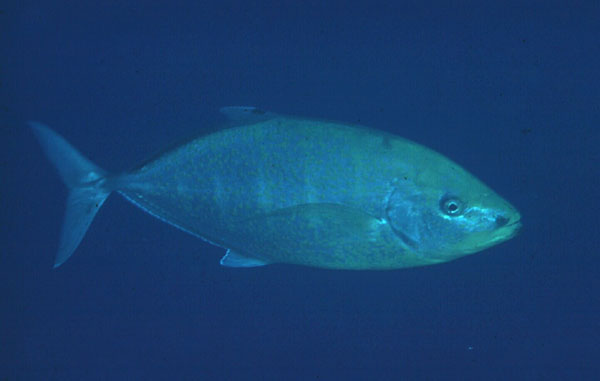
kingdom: Animalia
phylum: Chordata
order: Perciformes
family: Carangidae
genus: Carangoides
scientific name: Carangoides bajad
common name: Orangespotted trevally
